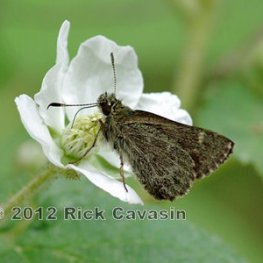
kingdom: Animalia
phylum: Arthropoda
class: Insecta
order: Lepidoptera
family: Hesperiidae
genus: Mastor
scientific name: Mastor hegon
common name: Pepper and Salt Skipper
